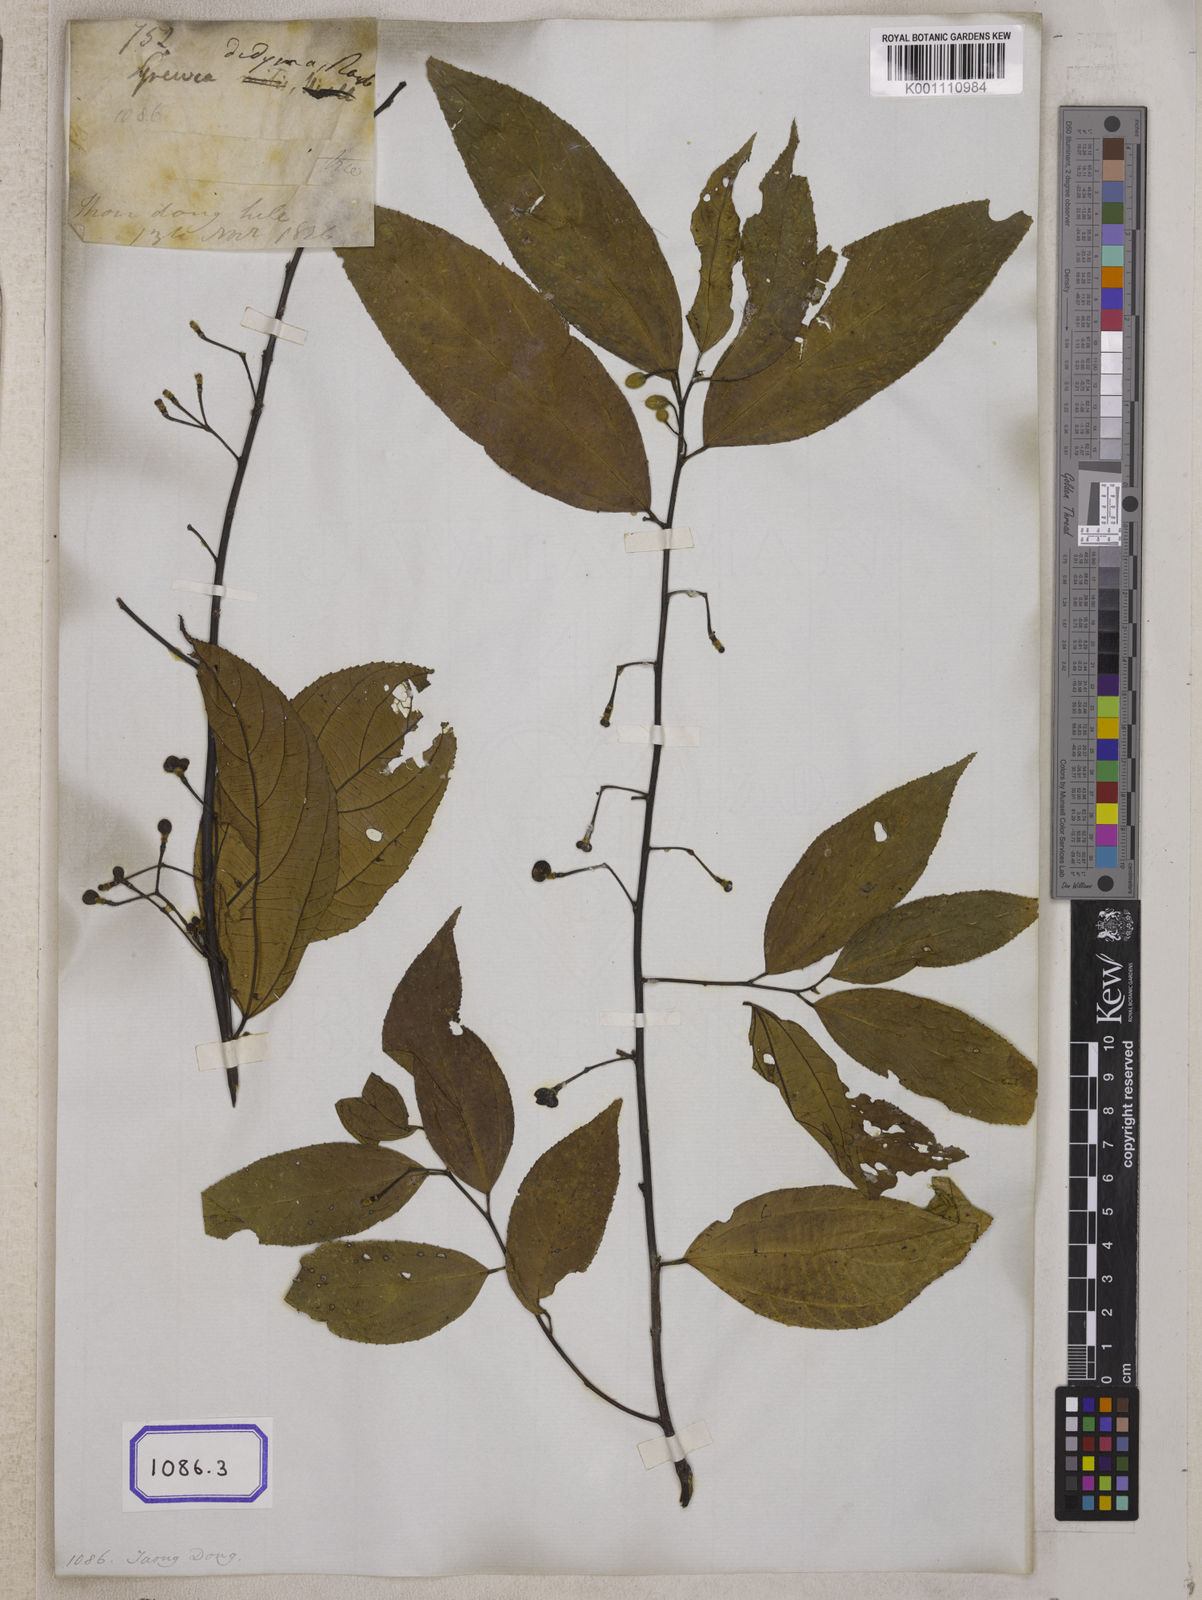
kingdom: Plantae
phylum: Tracheophyta
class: Magnoliopsida
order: Malvales
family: Malvaceae
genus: Grewia
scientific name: Grewia
